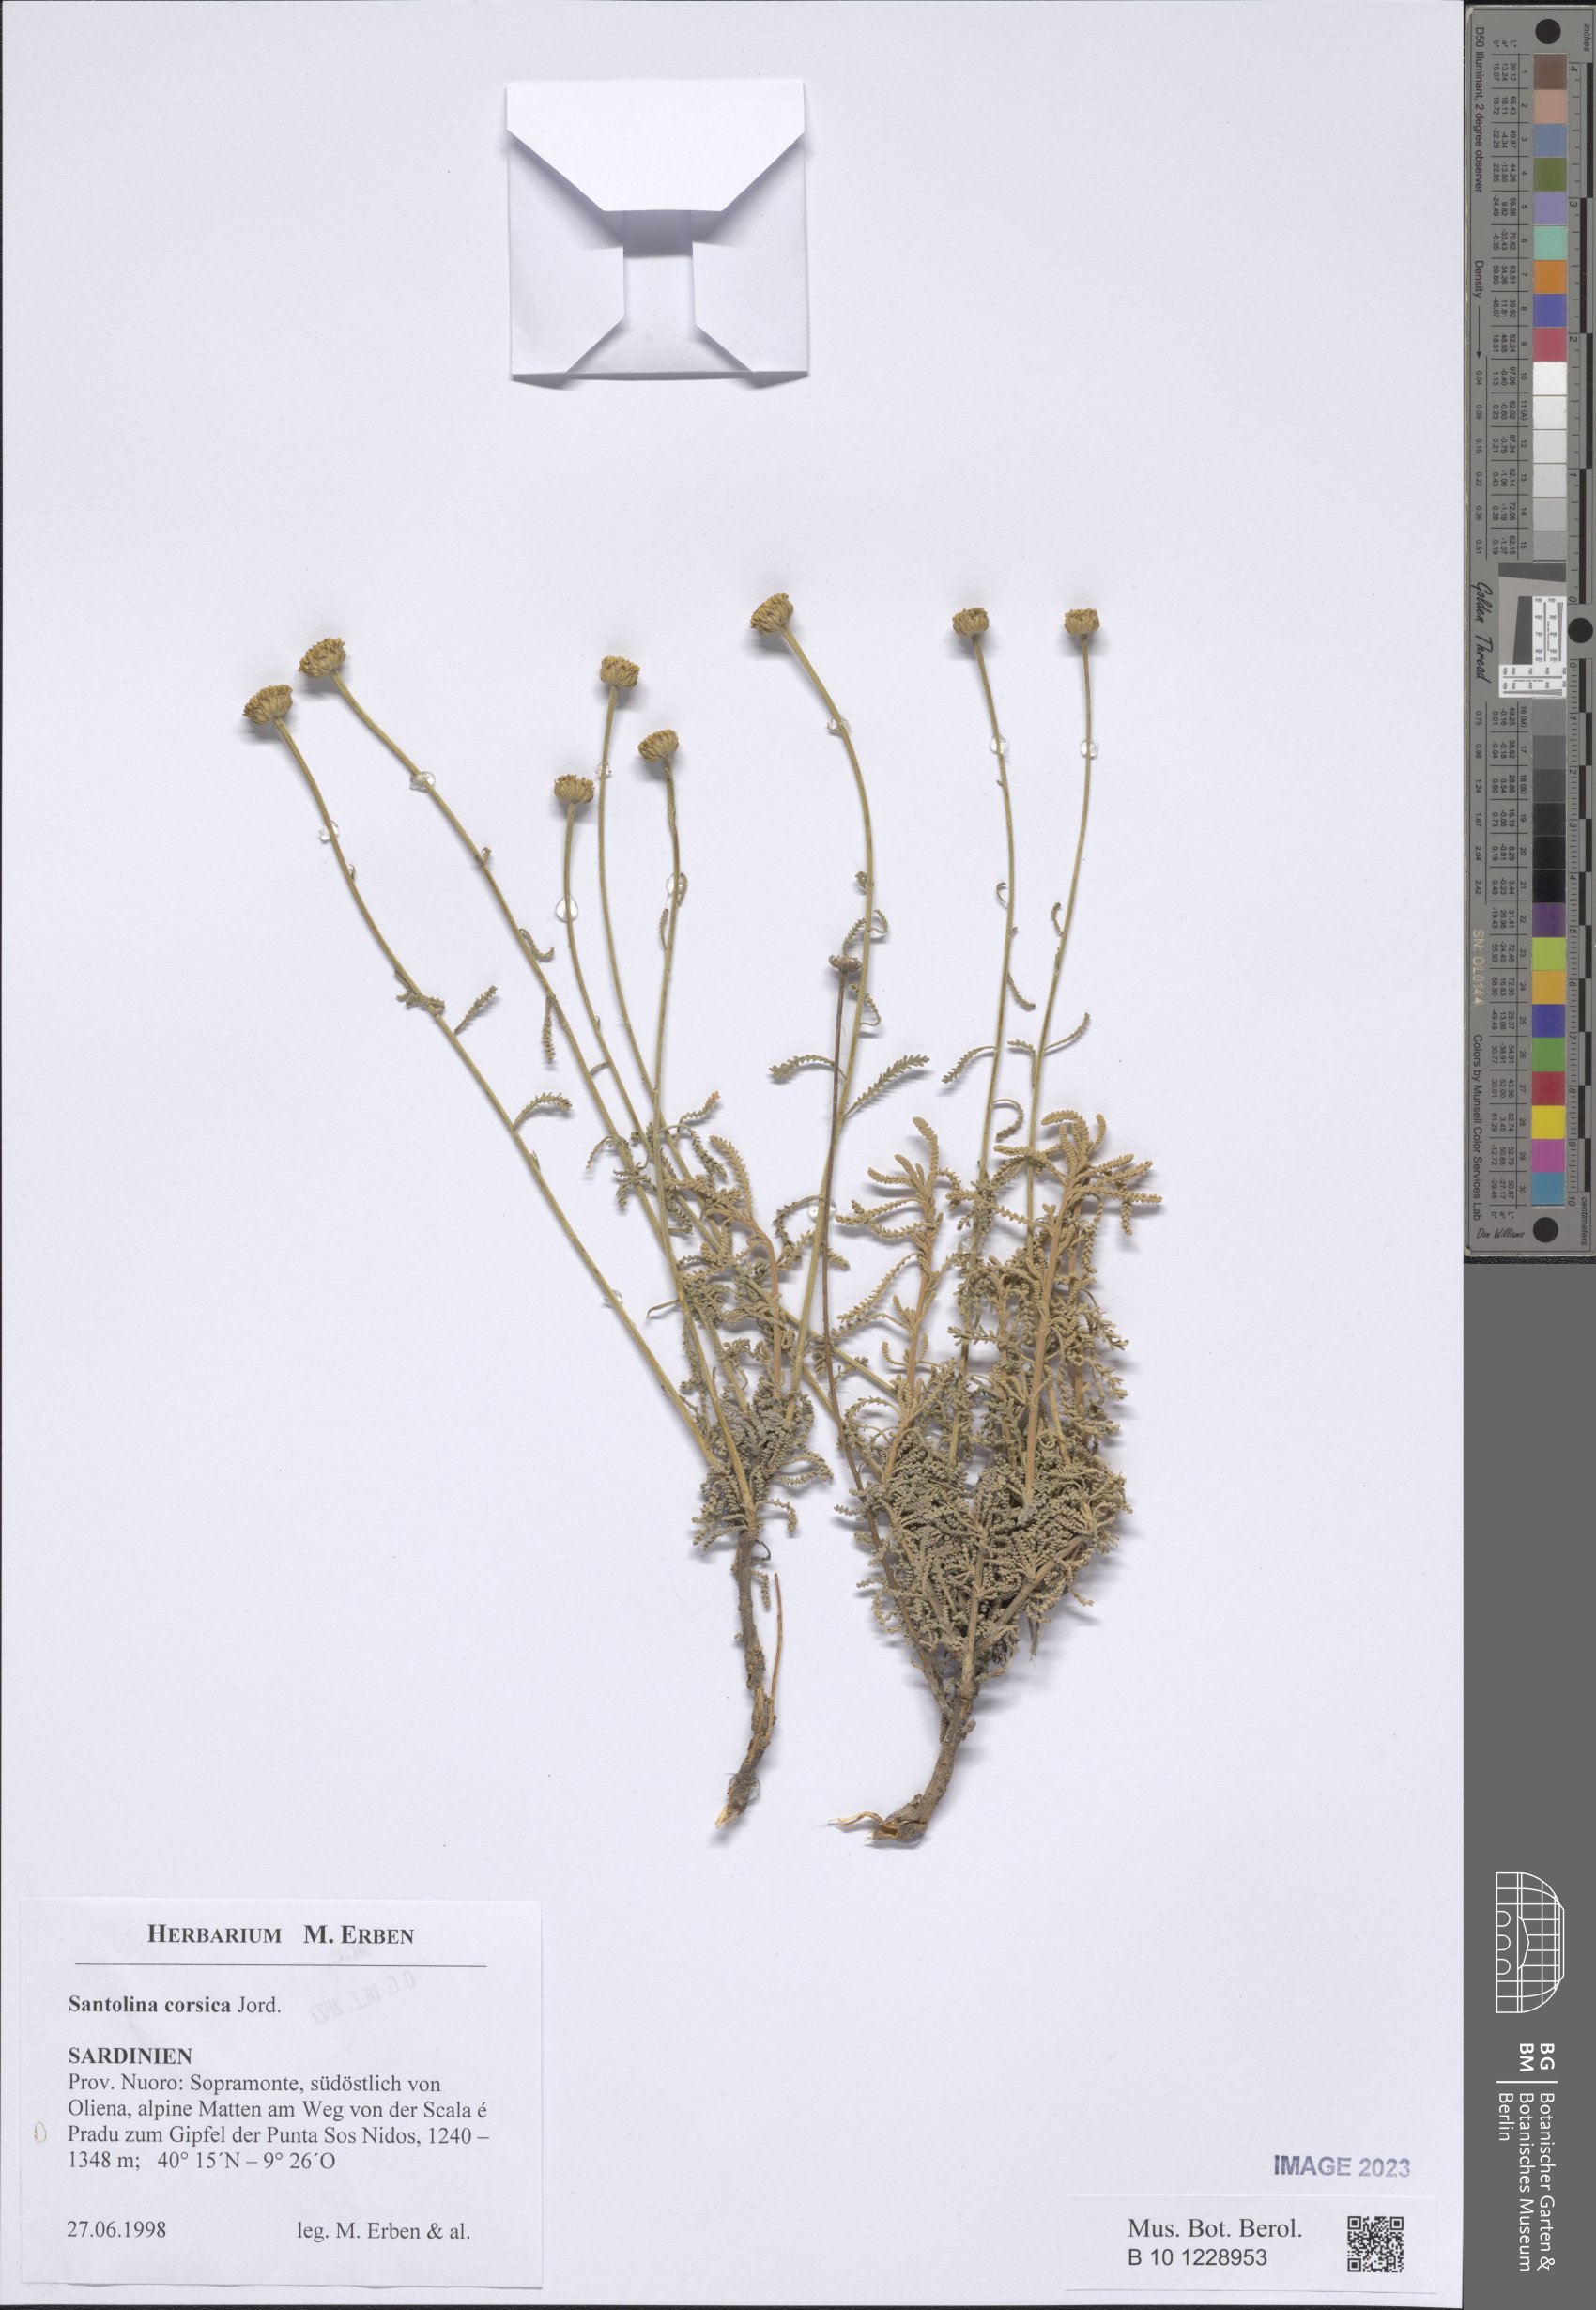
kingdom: Plantae
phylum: Tracheophyta
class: Magnoliopsida
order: Asterales
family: Asteraceae
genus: Santolina
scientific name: Santolina corsica
